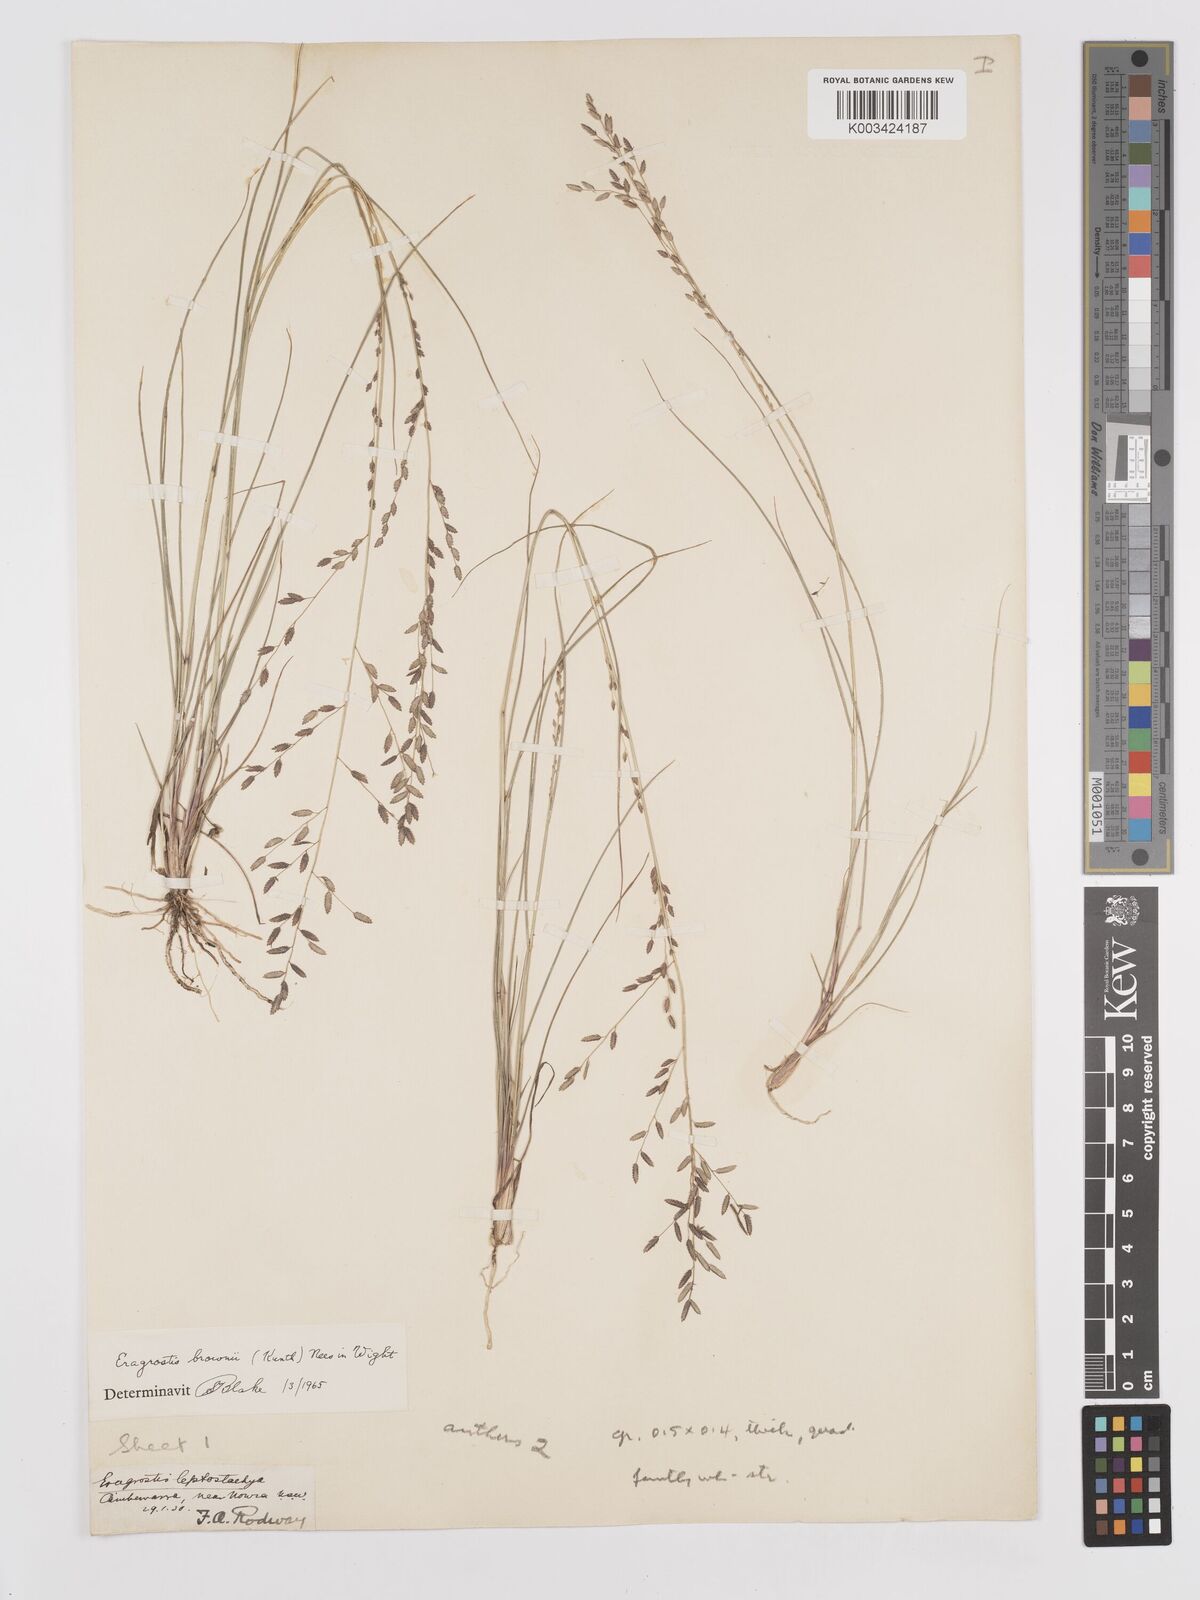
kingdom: Plantae
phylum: Tracheophyta
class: Liliopsida
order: Poales
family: Poaceae
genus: Eragrostis
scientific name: Eragrostis brownii
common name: Lovegrass
